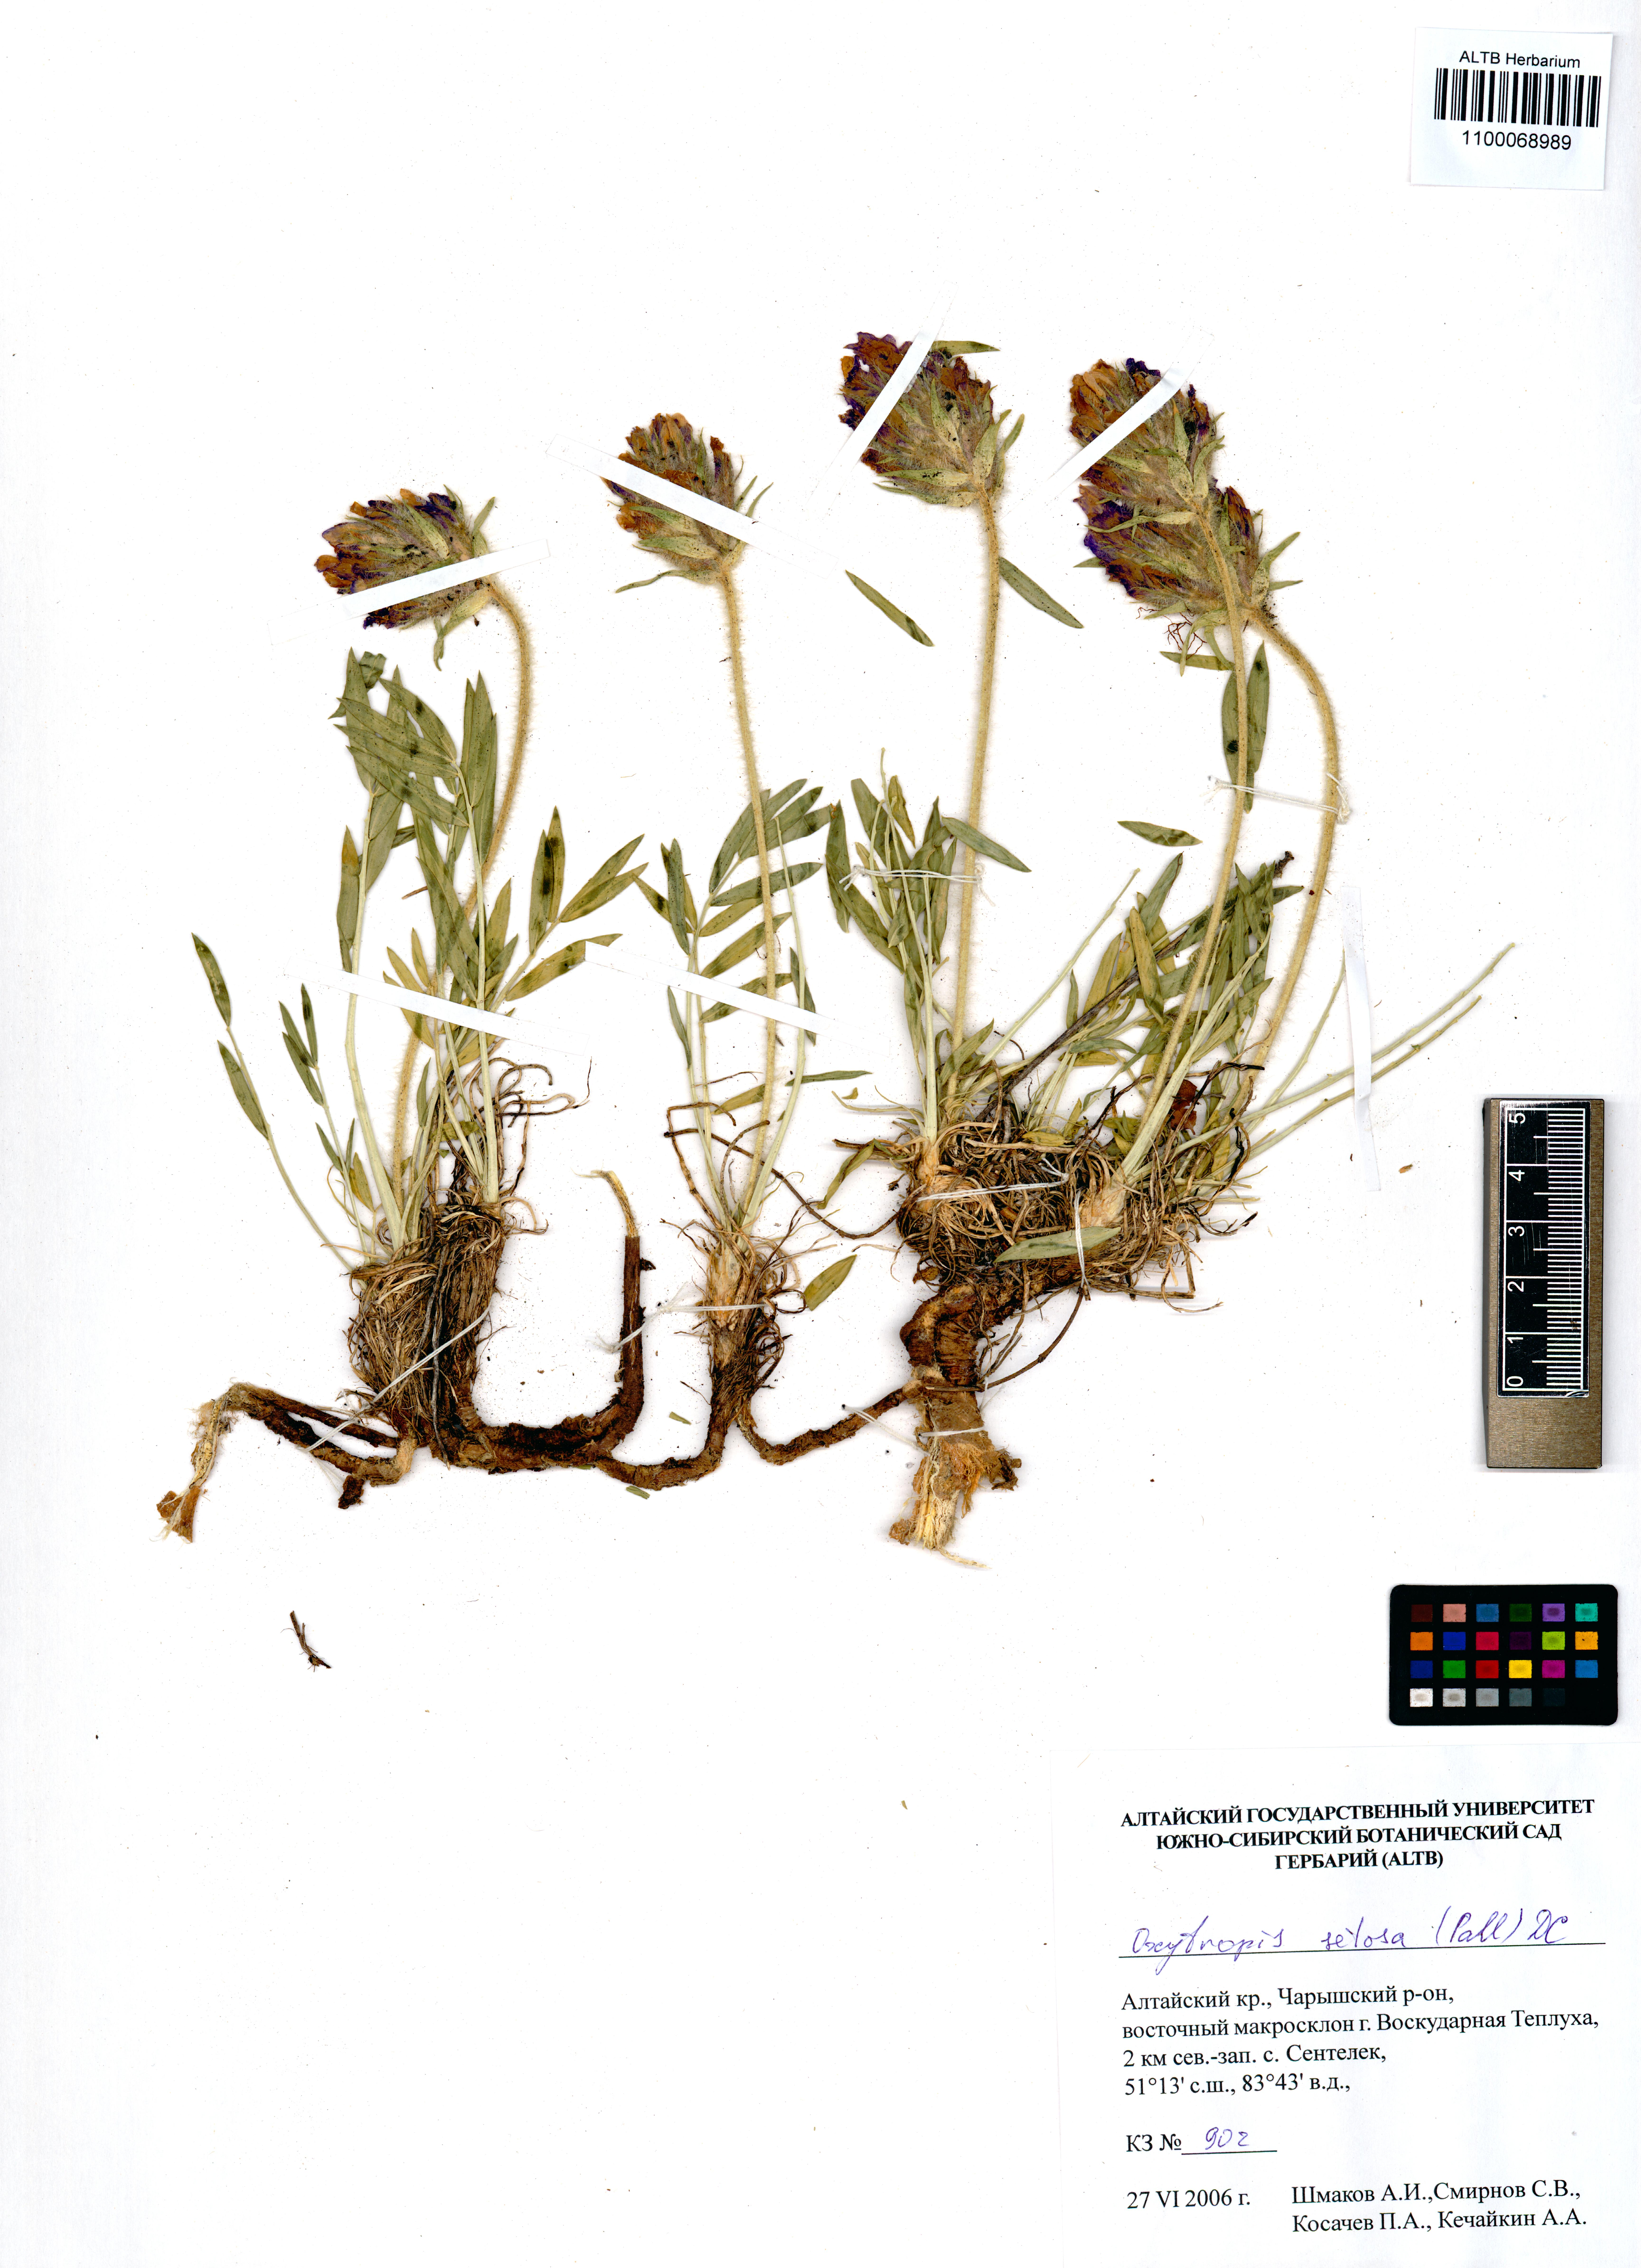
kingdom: Plantae
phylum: Tracheophyta
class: Magnoliopsida
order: Fabales
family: Fabaceae
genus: Oxytropis
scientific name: Oxytropis setosa
